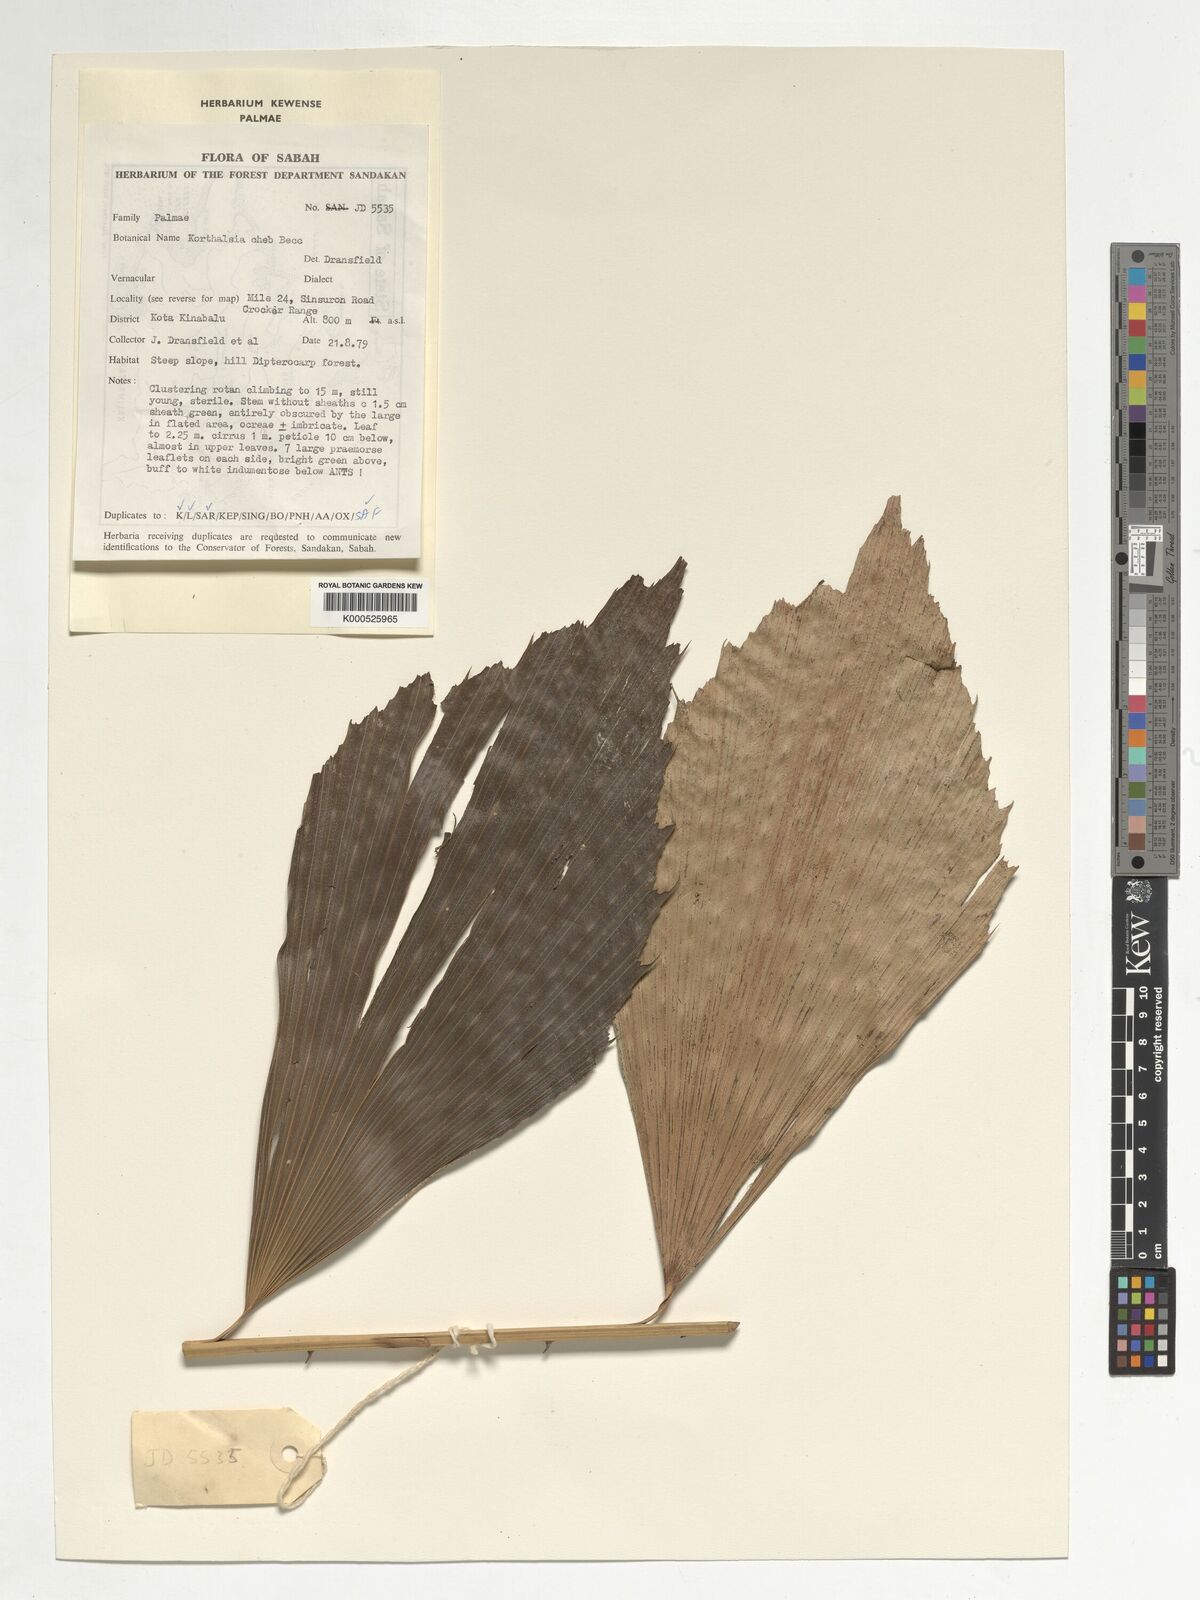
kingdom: Plantae
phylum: Tracheophyta
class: Liliopsida
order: Arecales
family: Arecaceae
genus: Korthalsia
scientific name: Korthalsia cheb
